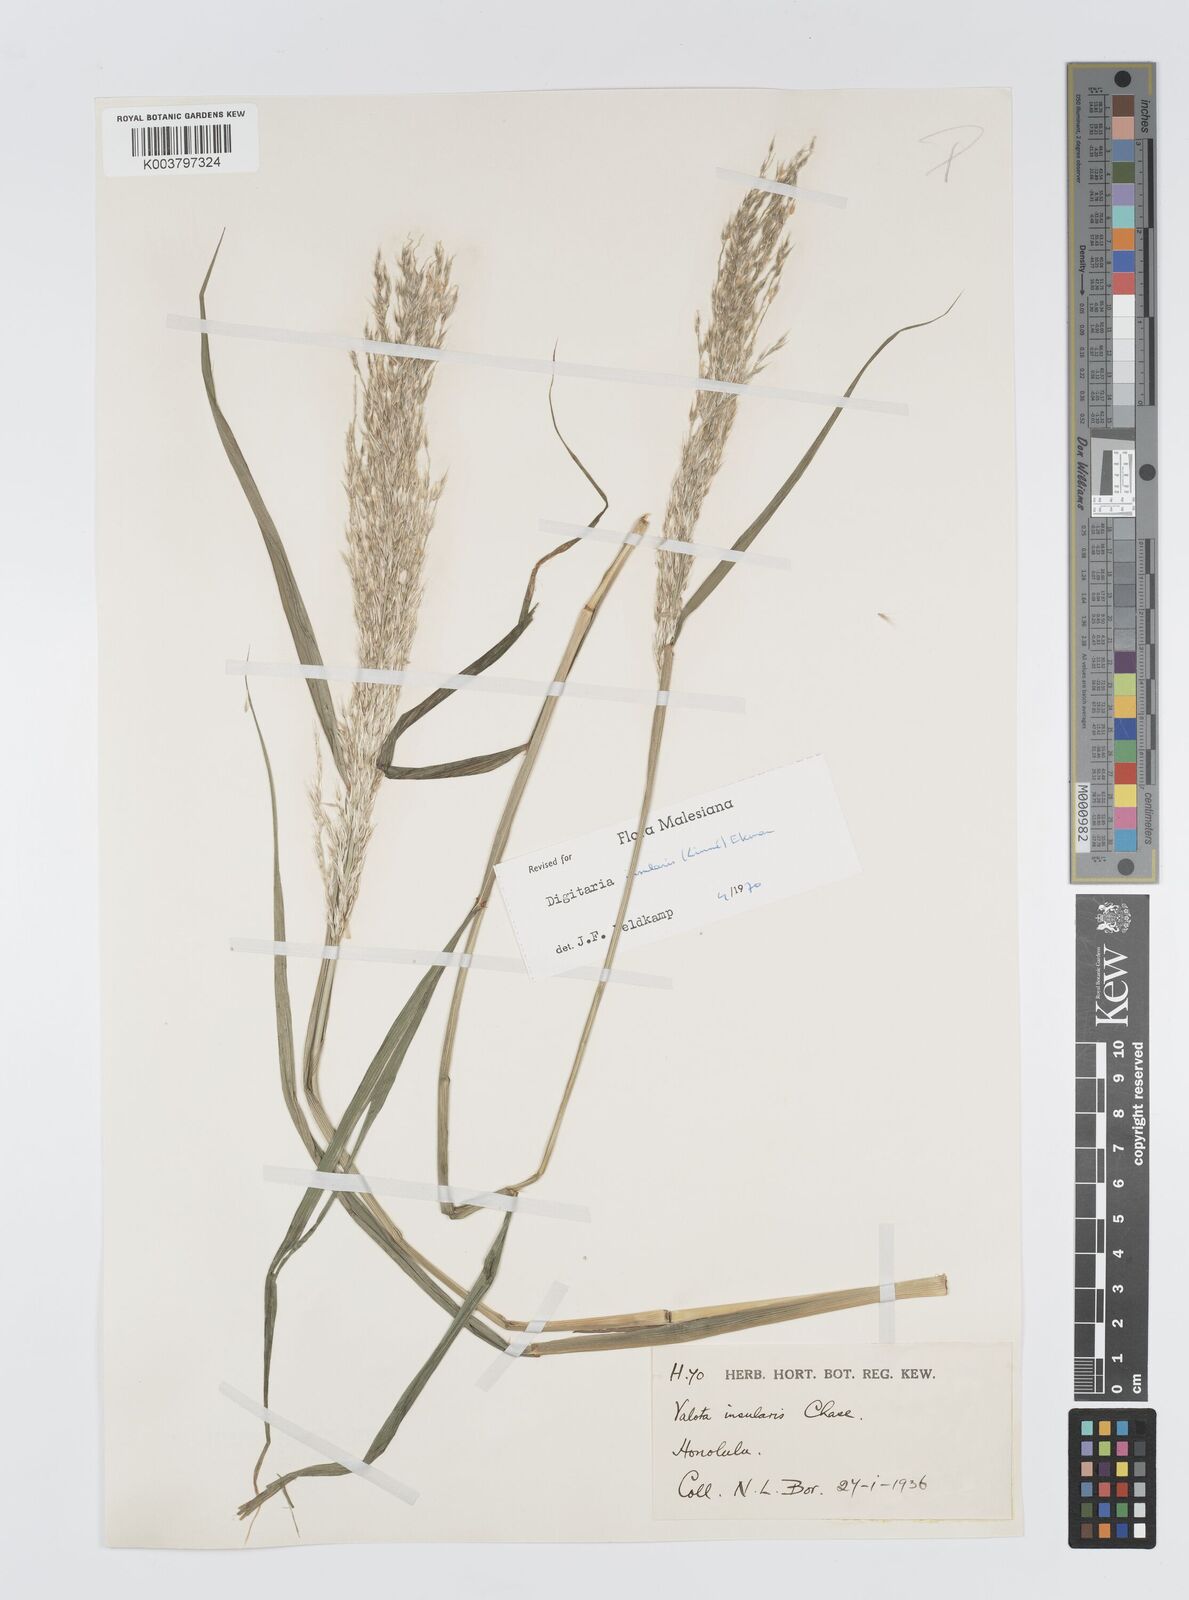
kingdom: Plantae
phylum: Tracheophyta
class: Liliopsida
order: Poales
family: Poaceae
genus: Digitaria
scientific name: Digitaria insularis
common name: Sourgrass
